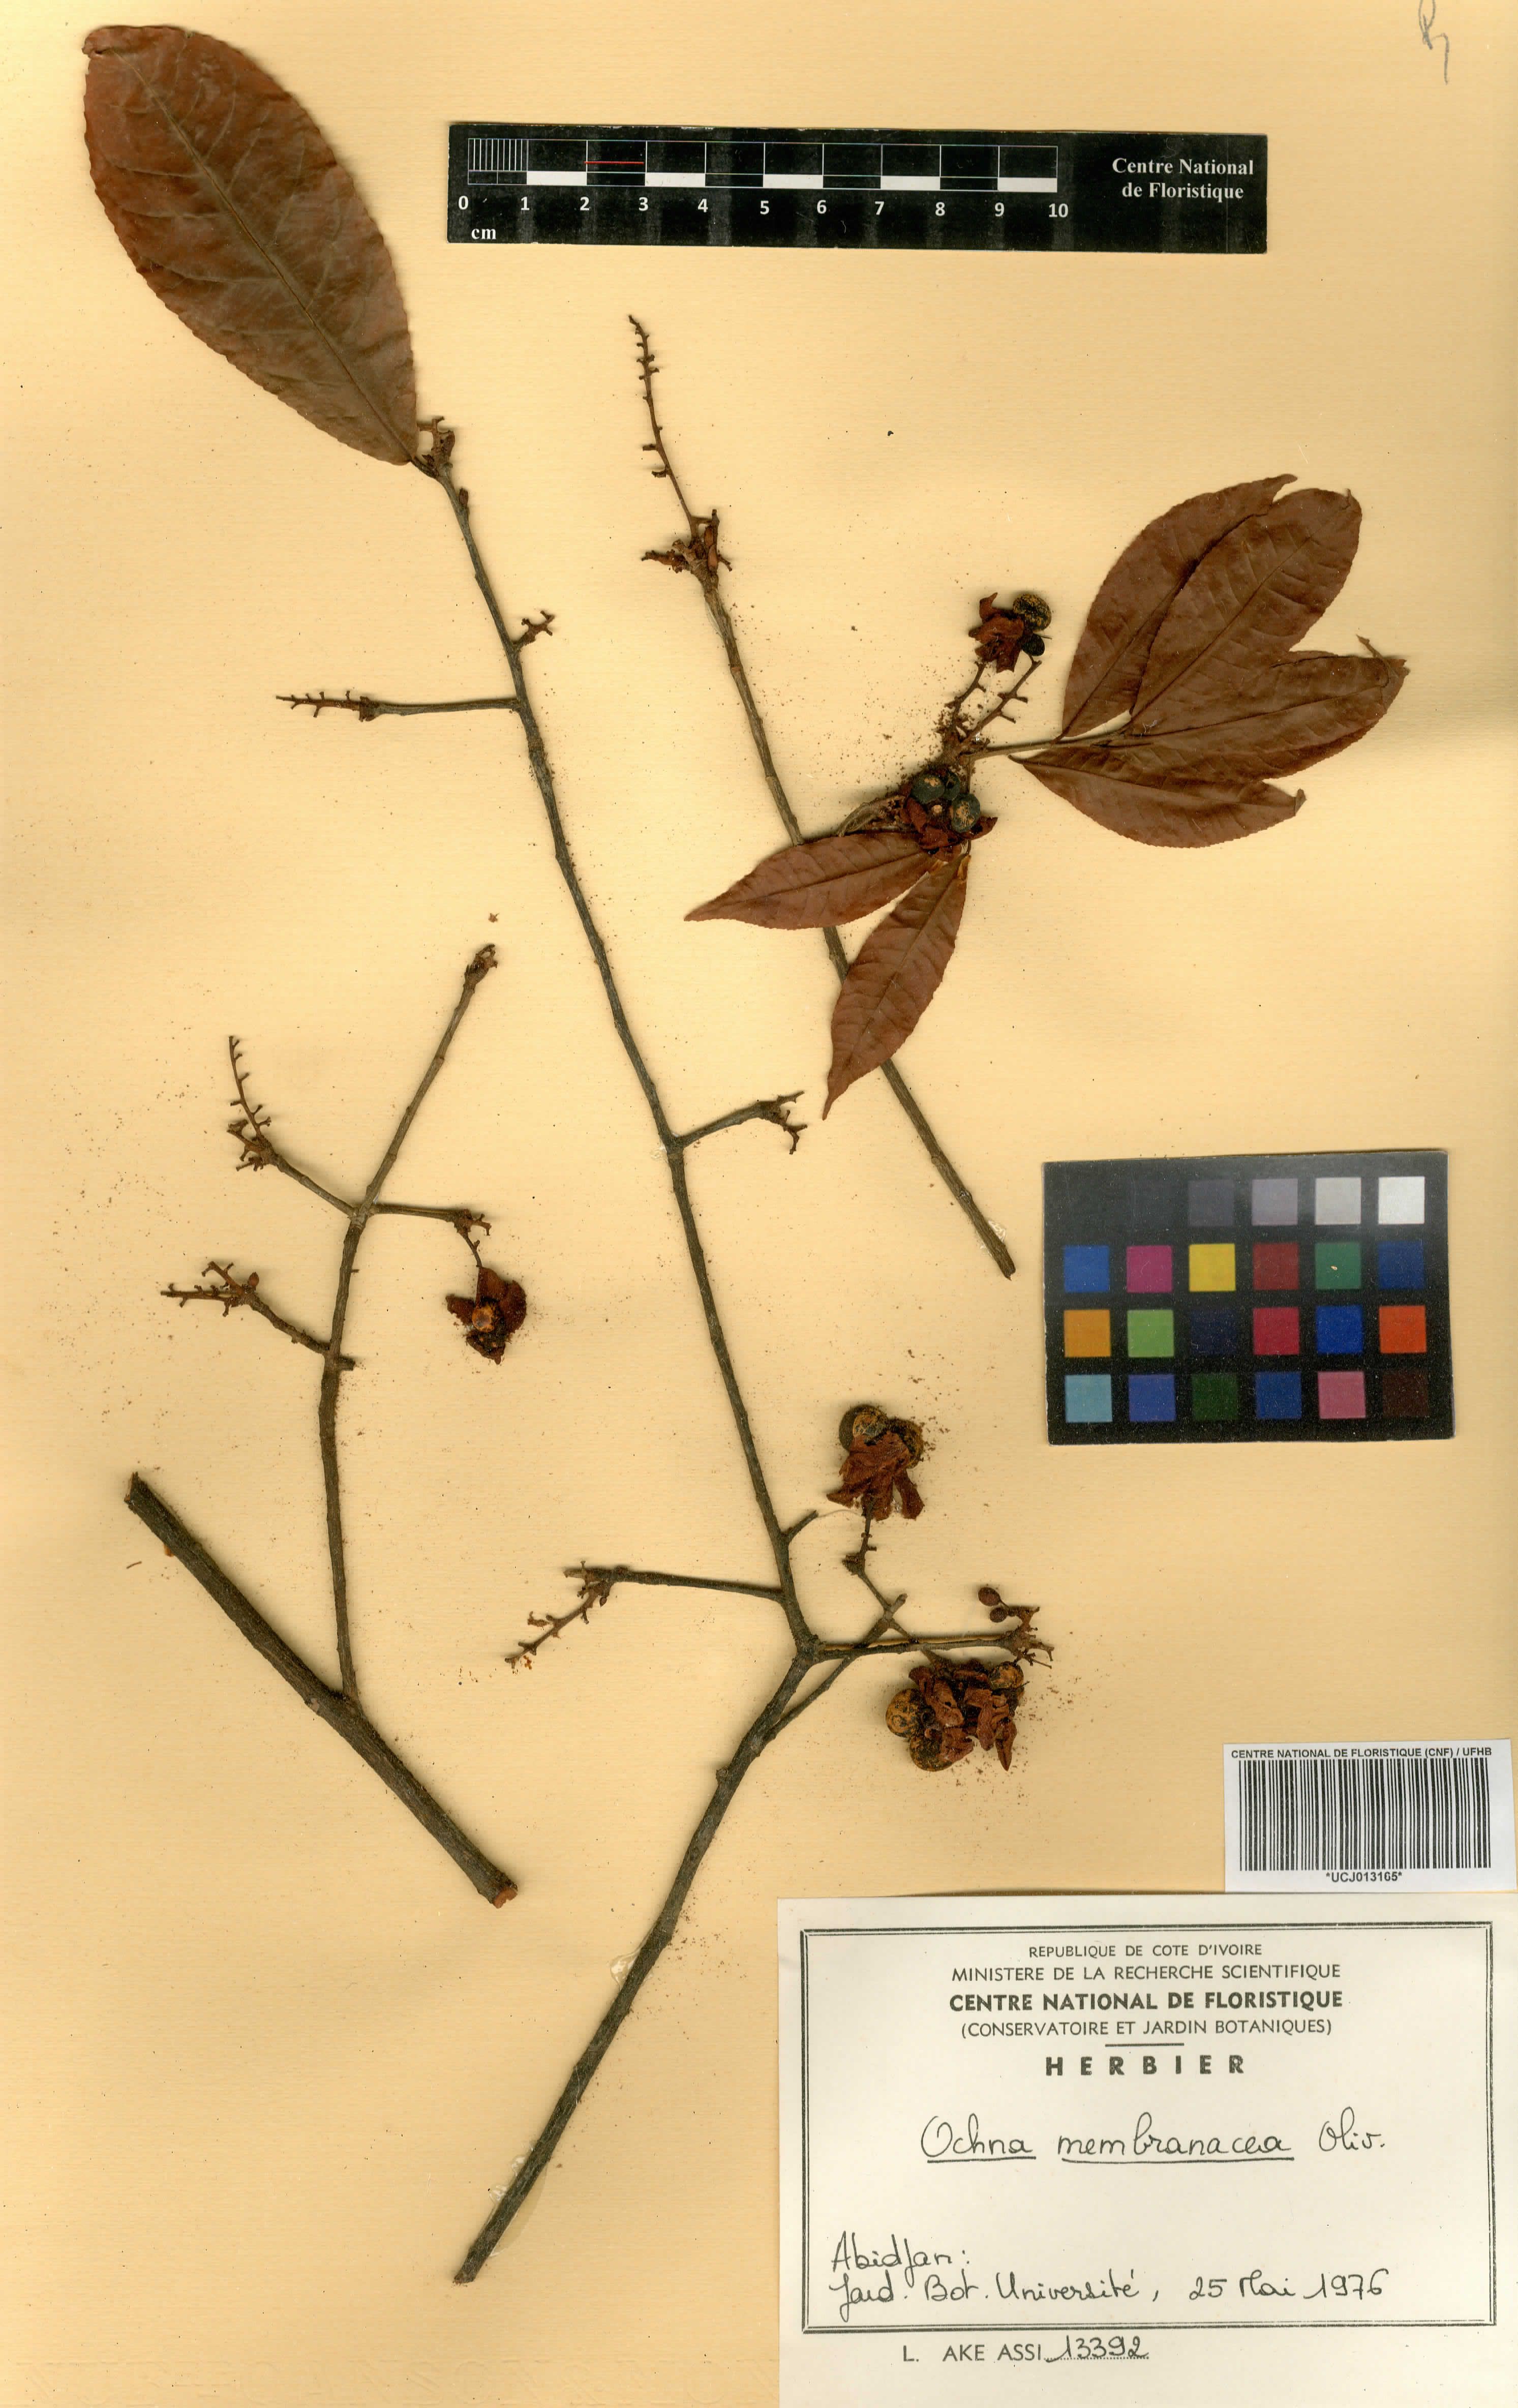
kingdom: Plantae
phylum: Tracheophyta
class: Magnoliopsida
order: Malpighiales
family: Ochnaceae
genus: Ochna
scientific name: Ochna membranacea
